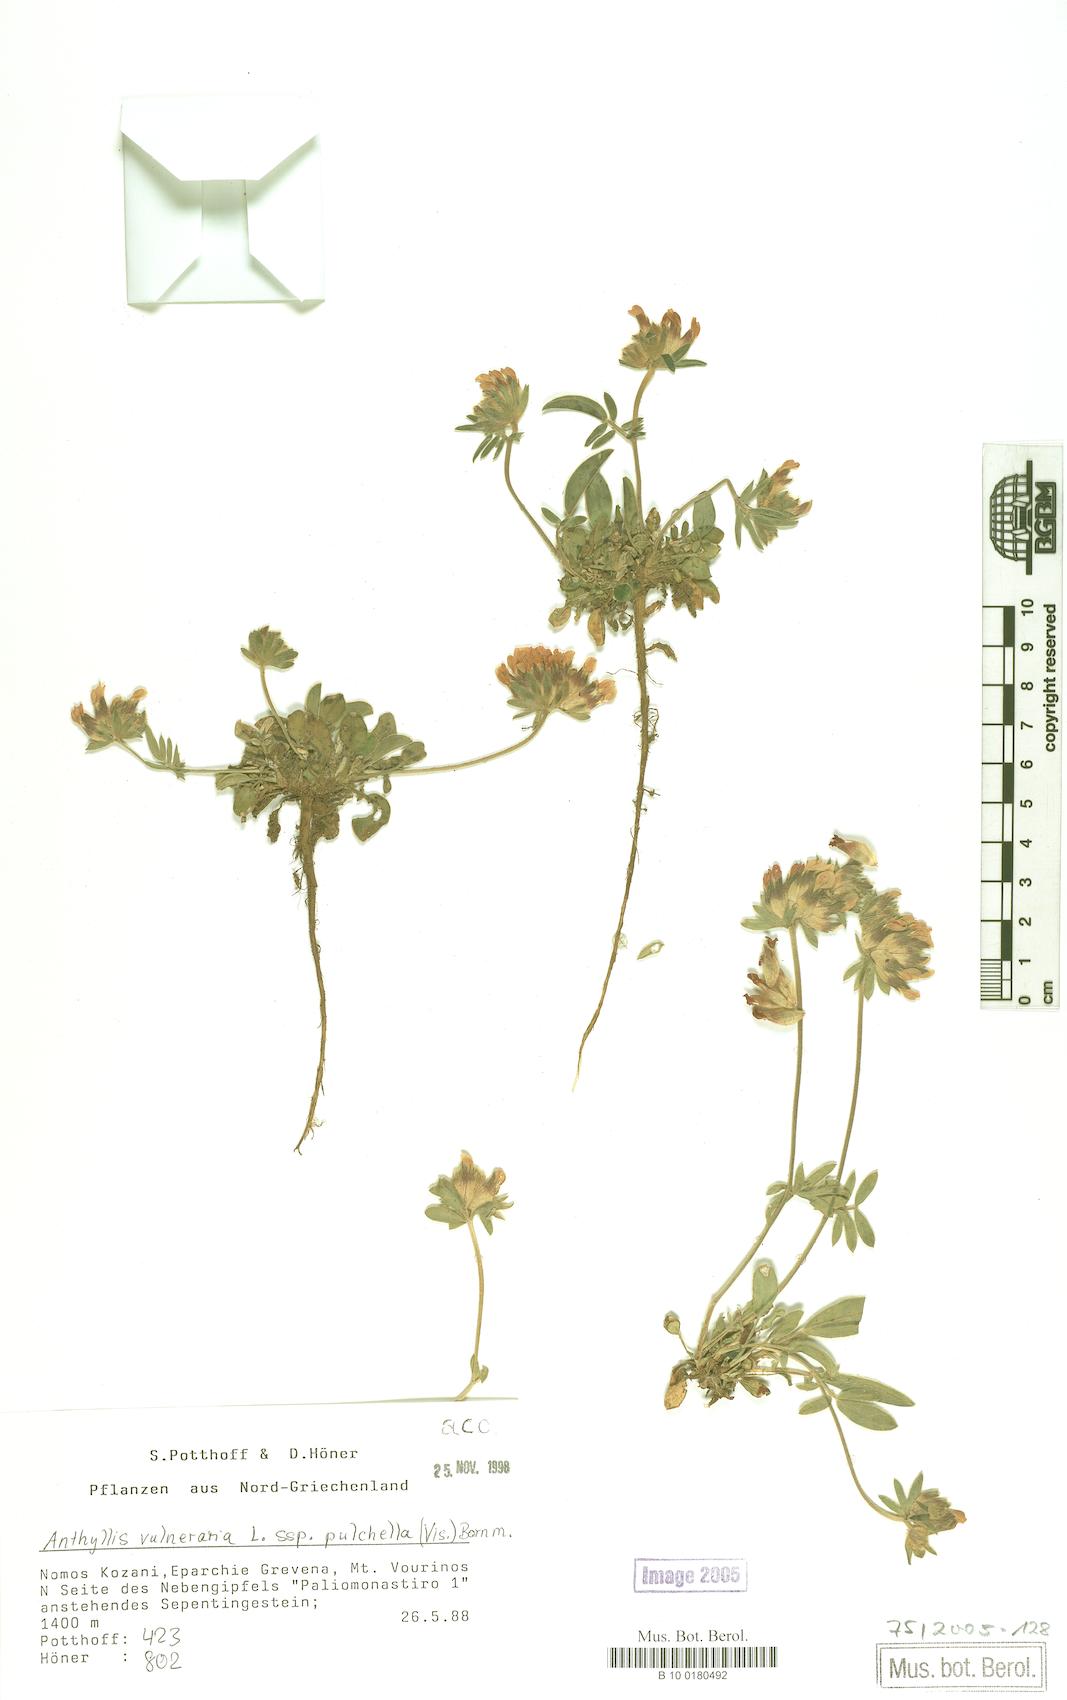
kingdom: Plantae
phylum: Tracheophyta
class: Magnoliopsida
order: Fabales
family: Fabaceae
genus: Anthyllis
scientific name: Anthyllis vulneraria
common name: Kidney vetch
